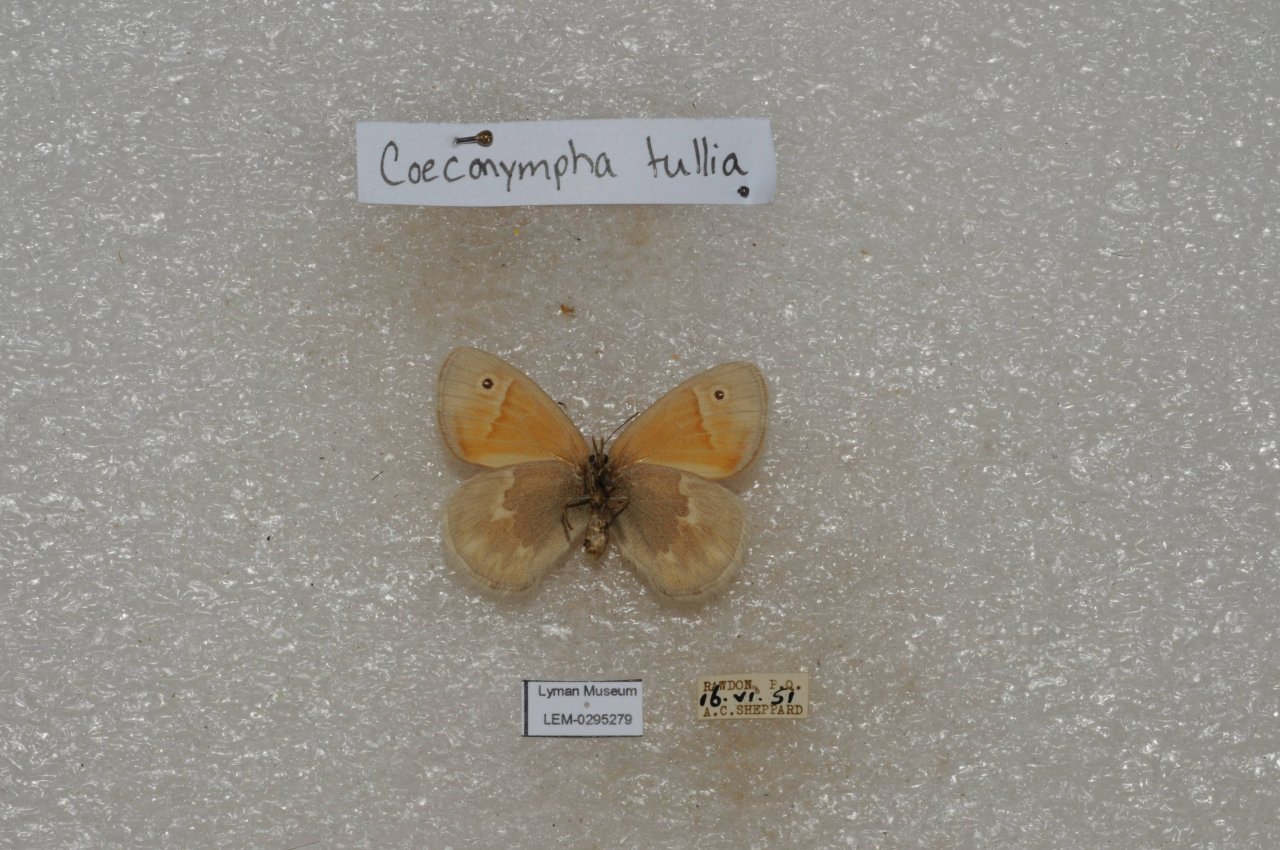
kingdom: Animalia
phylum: Arthropoda
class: Insecta
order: Lepidoptera
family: Nymphalidae
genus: Coenonympha
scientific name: Coenonympha tullia
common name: Large Heath
